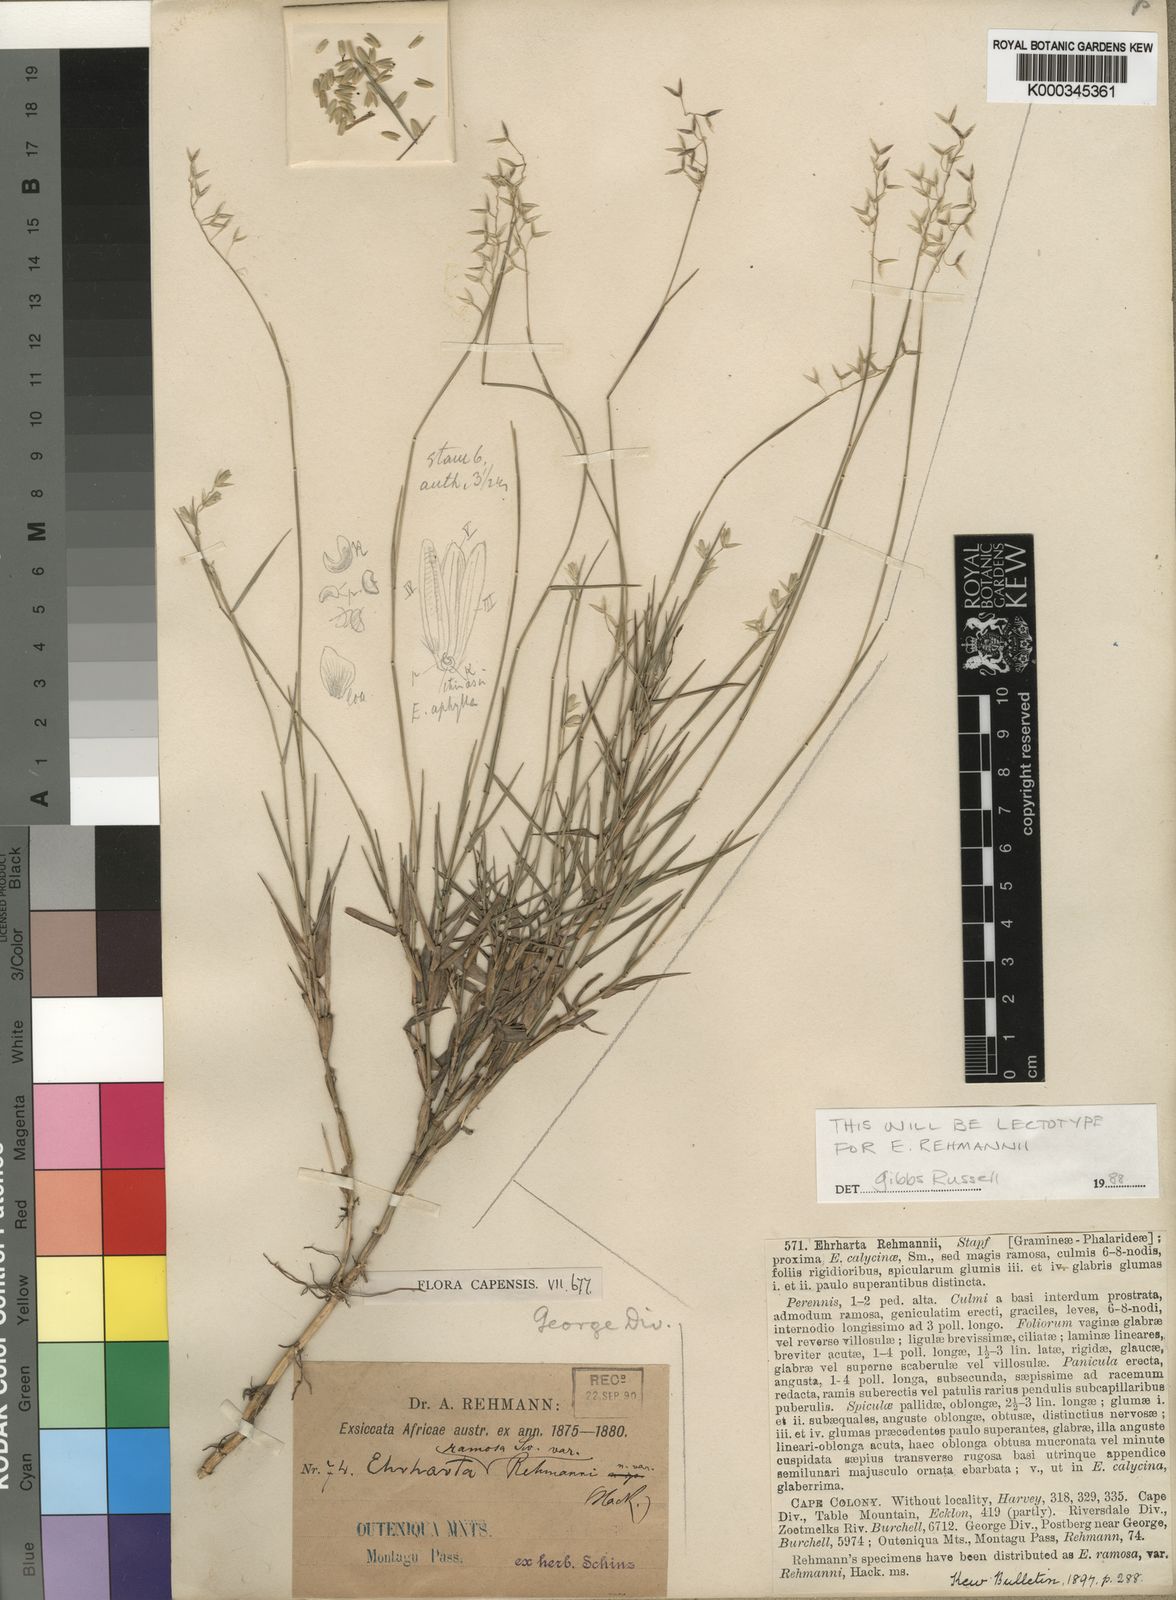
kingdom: Plantae
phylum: Tracheophyta
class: Liliopsida
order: Poales
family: Poaceae
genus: Ehrharta
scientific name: Ehrharta rehmannii
